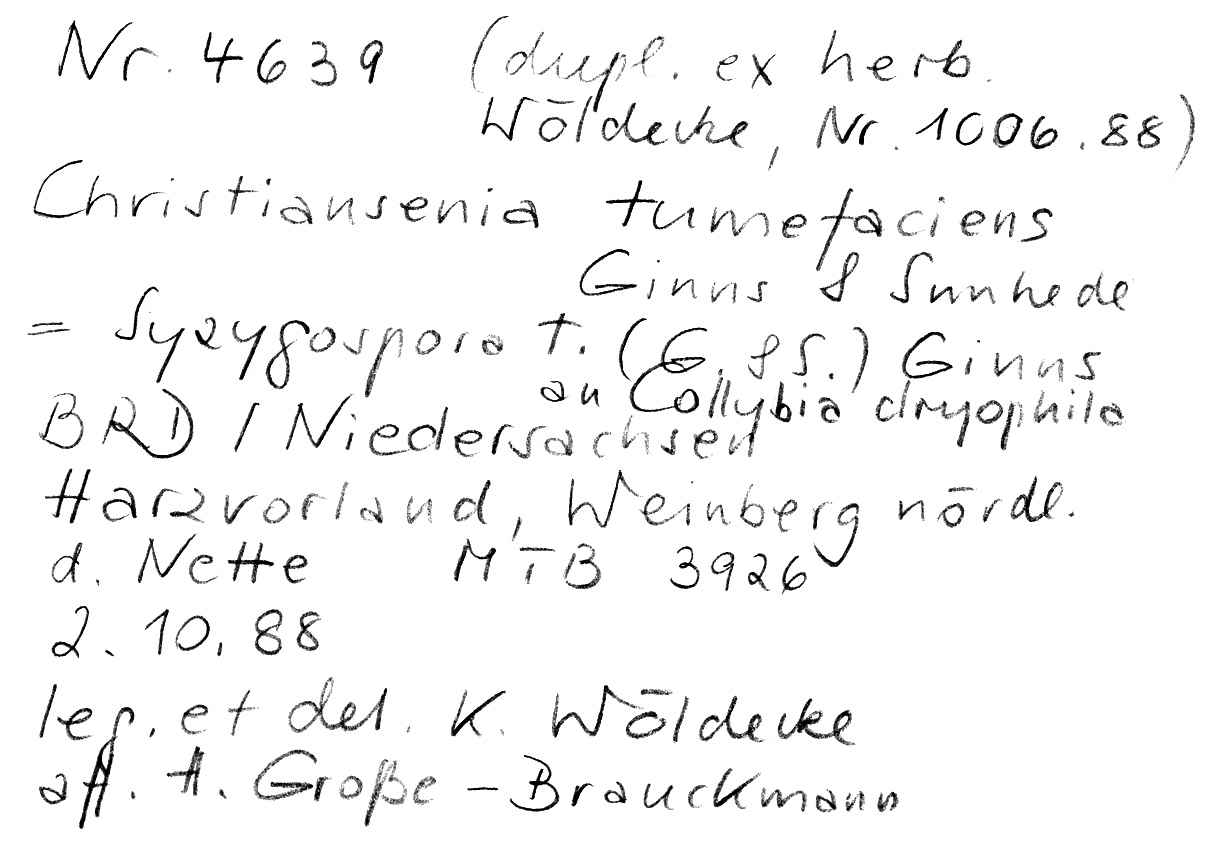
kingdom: Fungi
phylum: Basidiomycota
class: Tremellomycetes
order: Filobasidiales
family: Filobasidiaceae
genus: Syzygospora
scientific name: Syzygospora tumefaciens
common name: Toughshank jellygall
